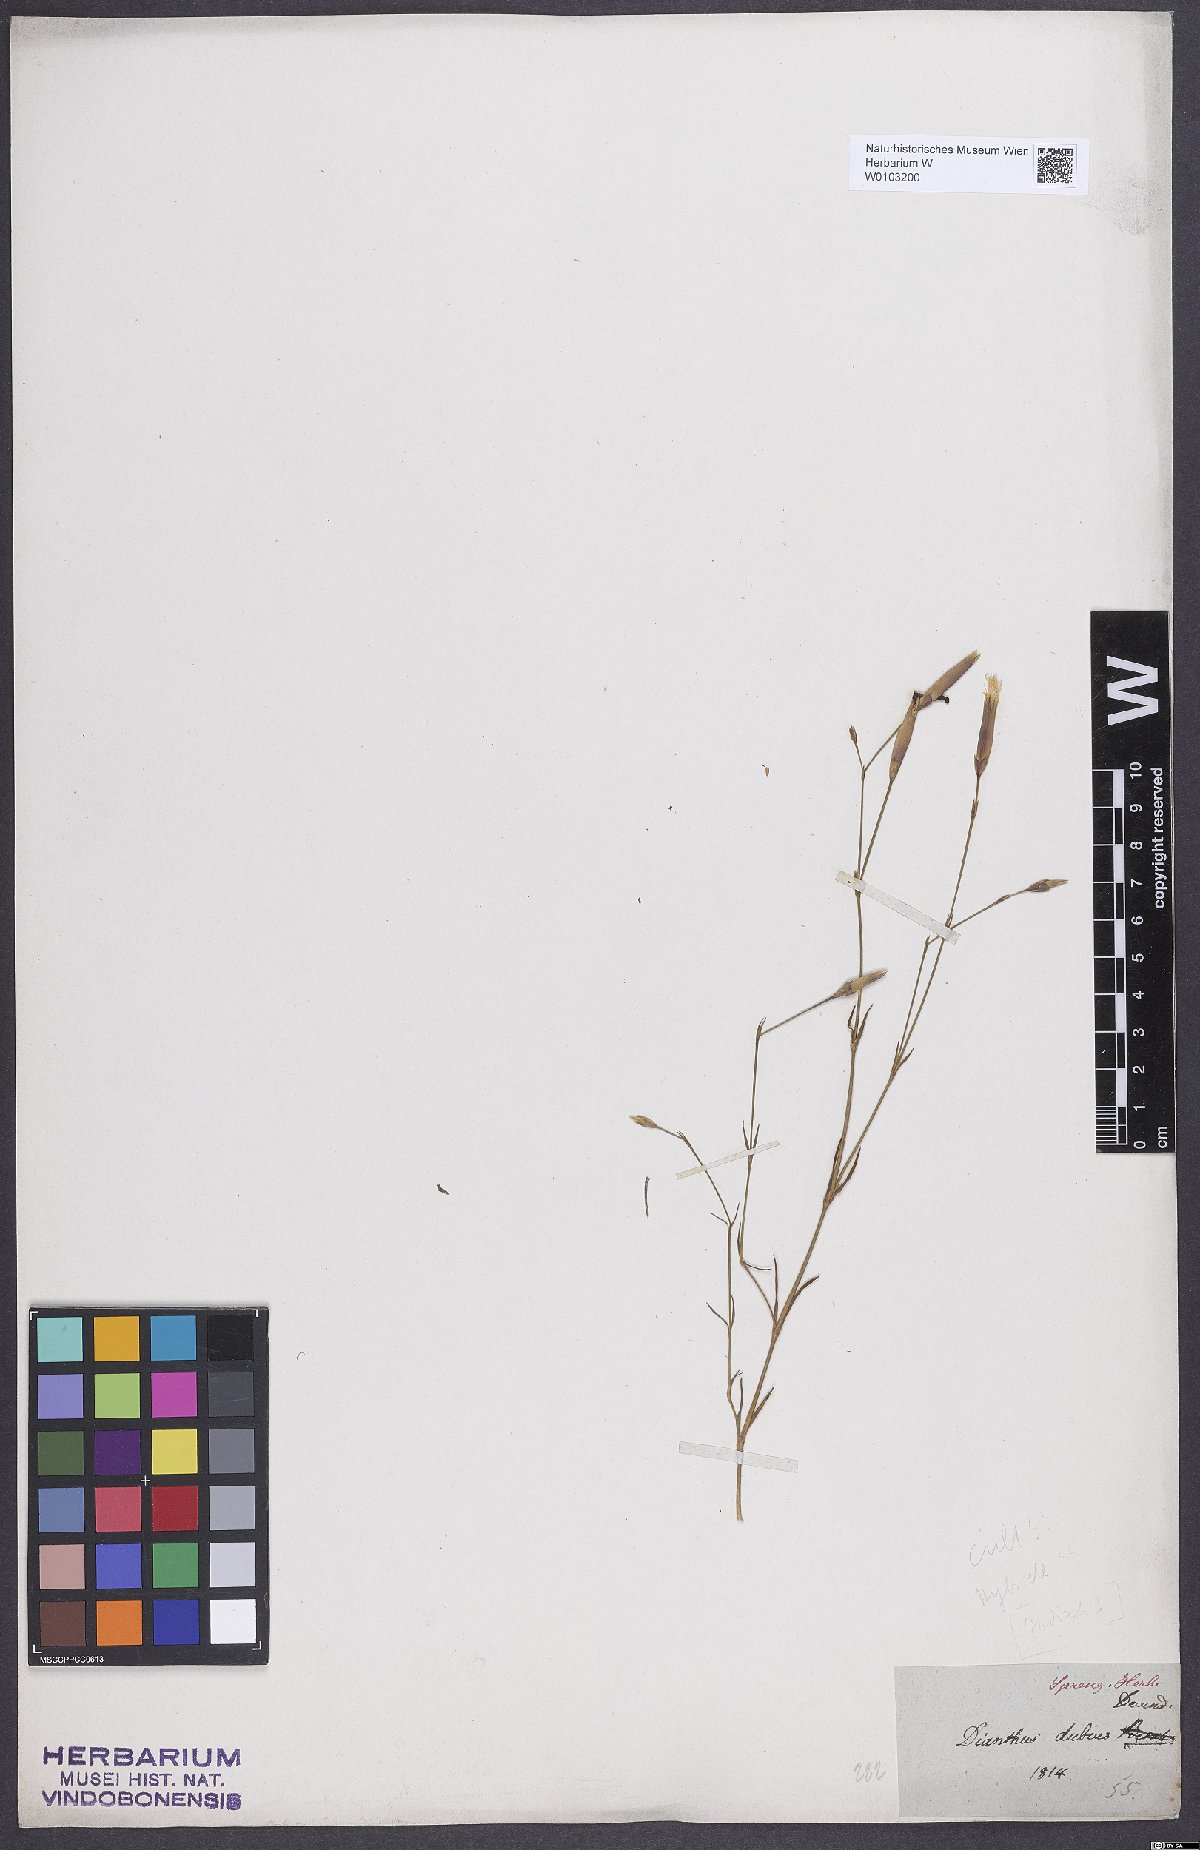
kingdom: Plantae
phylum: Tracheophyta
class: Magnoliopsida
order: Caryophyllales
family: Caryophyllaceae
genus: Dianthus
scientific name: Dianthus arenarius
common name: Stone pink
